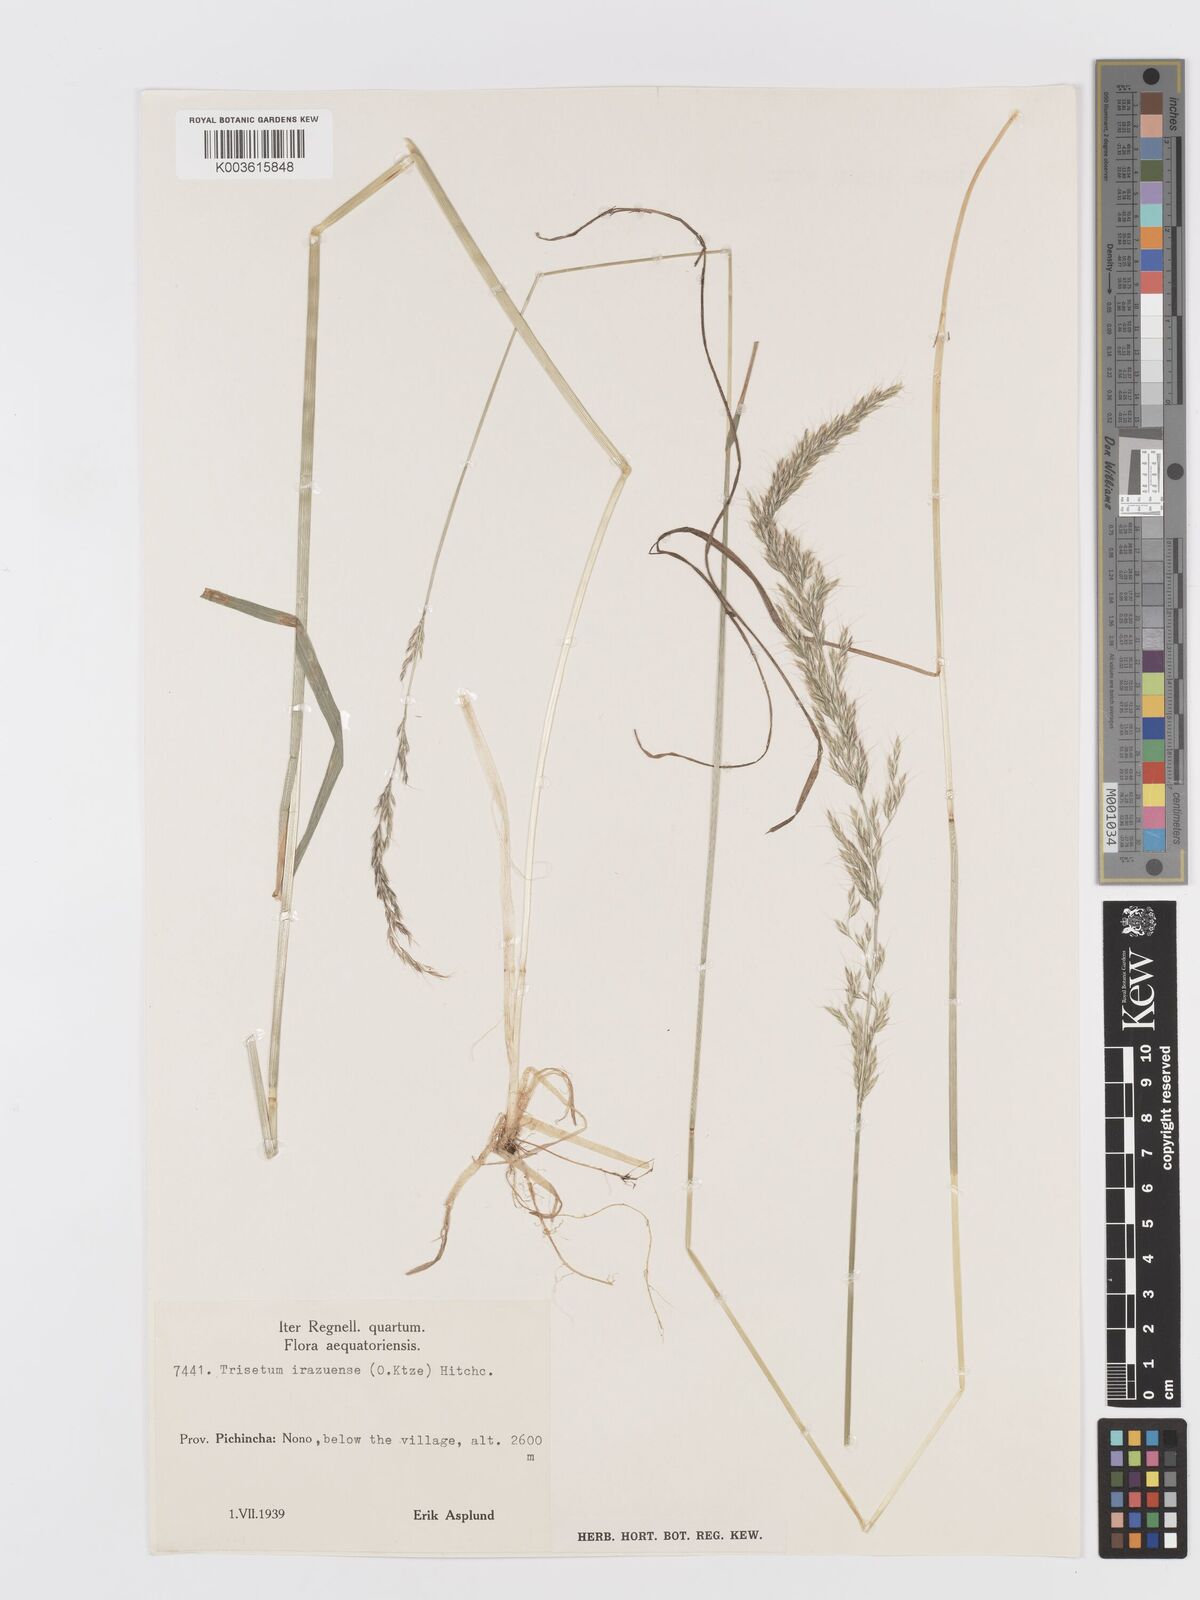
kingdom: Plantae
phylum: Tracheophyta
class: Liliopsida
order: Poales
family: Poaceae
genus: Peyritschia
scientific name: Peyritschia irazuensis
